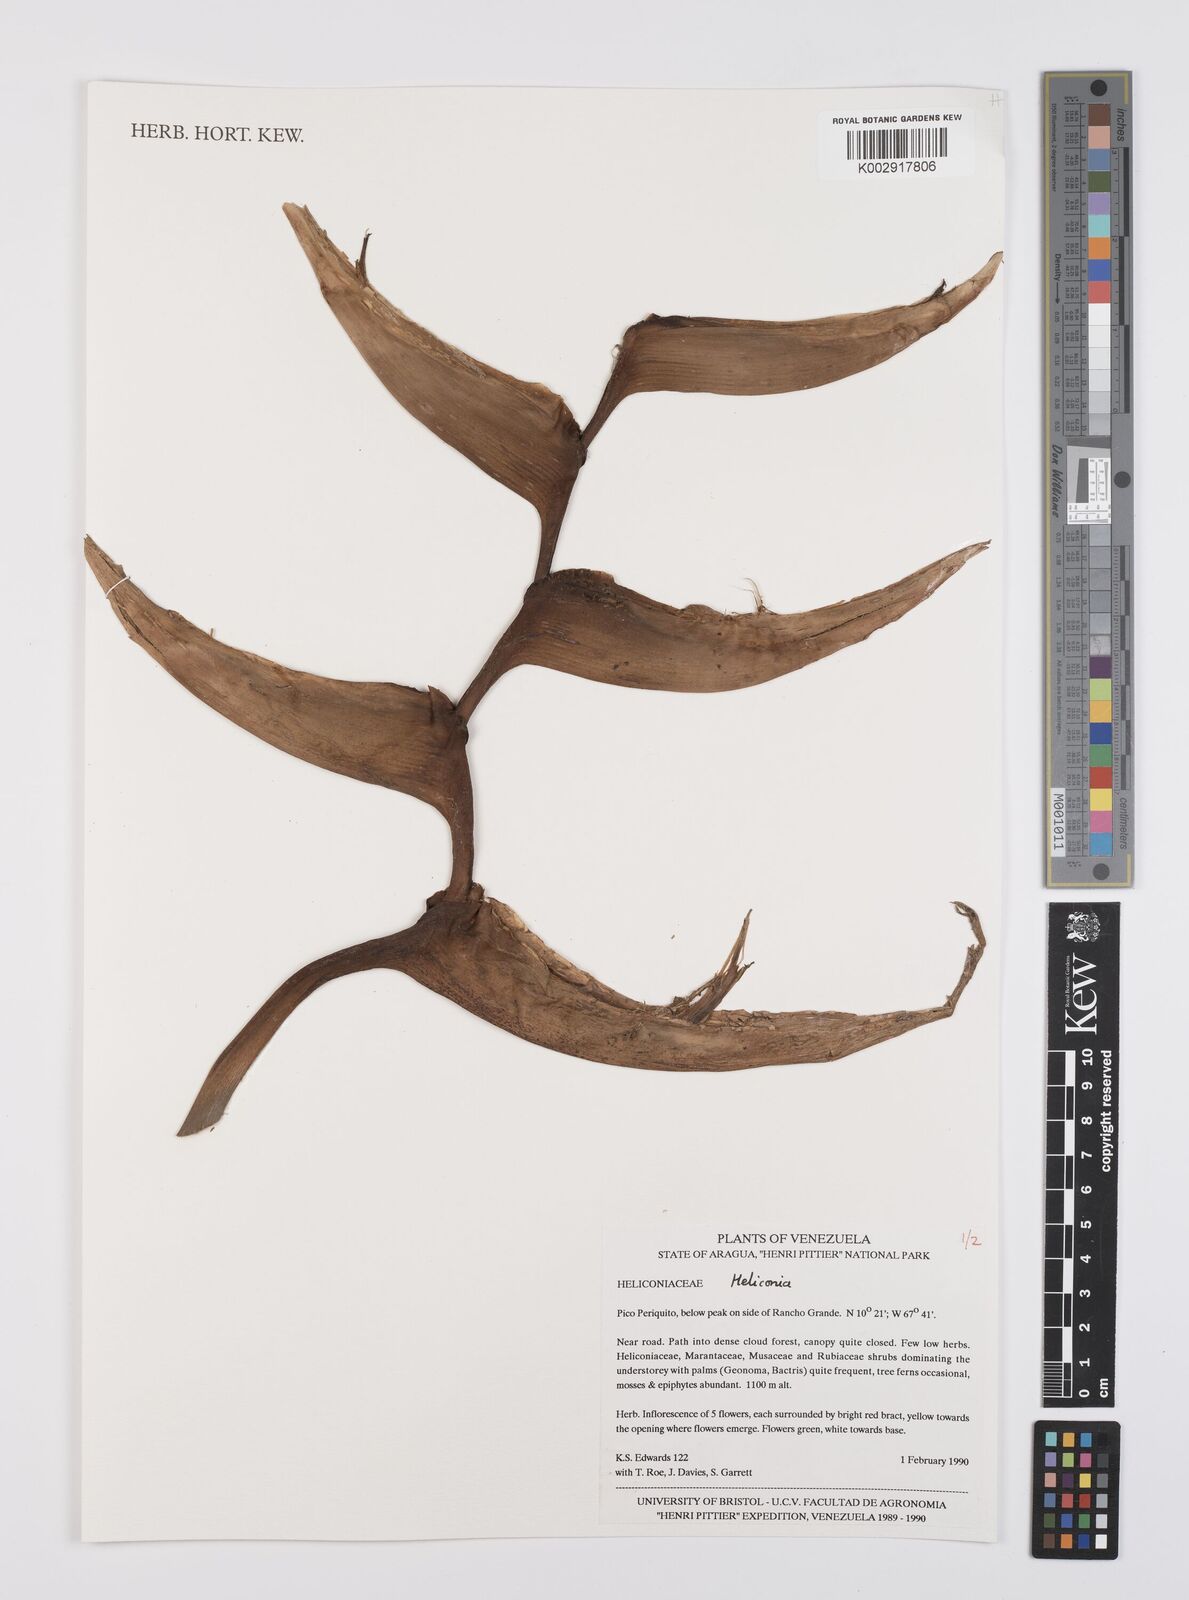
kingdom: Plantae
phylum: Tracheophyta
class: Liliopsida
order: Zingiberales
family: Heliconiaceae
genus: Heliconia
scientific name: Heliconia
